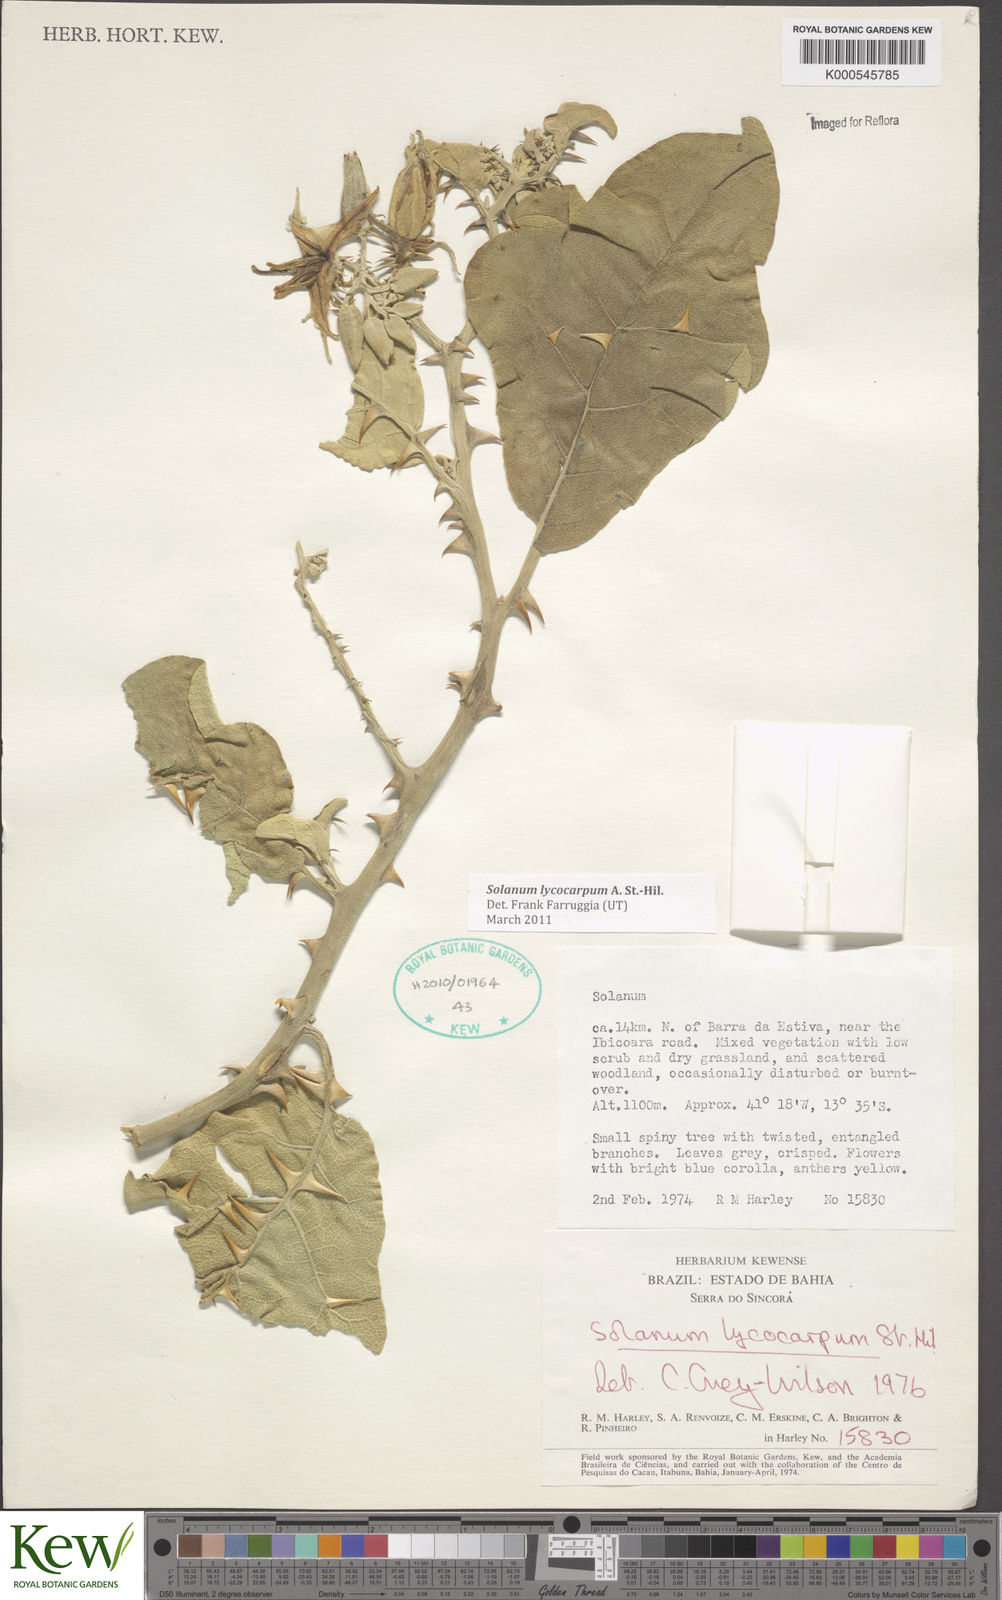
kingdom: Plantae
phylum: Tracheophyta
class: Magnoliopsida
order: Solanales
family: Solanaceae
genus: Solanum
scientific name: Solanum lycocarpum
